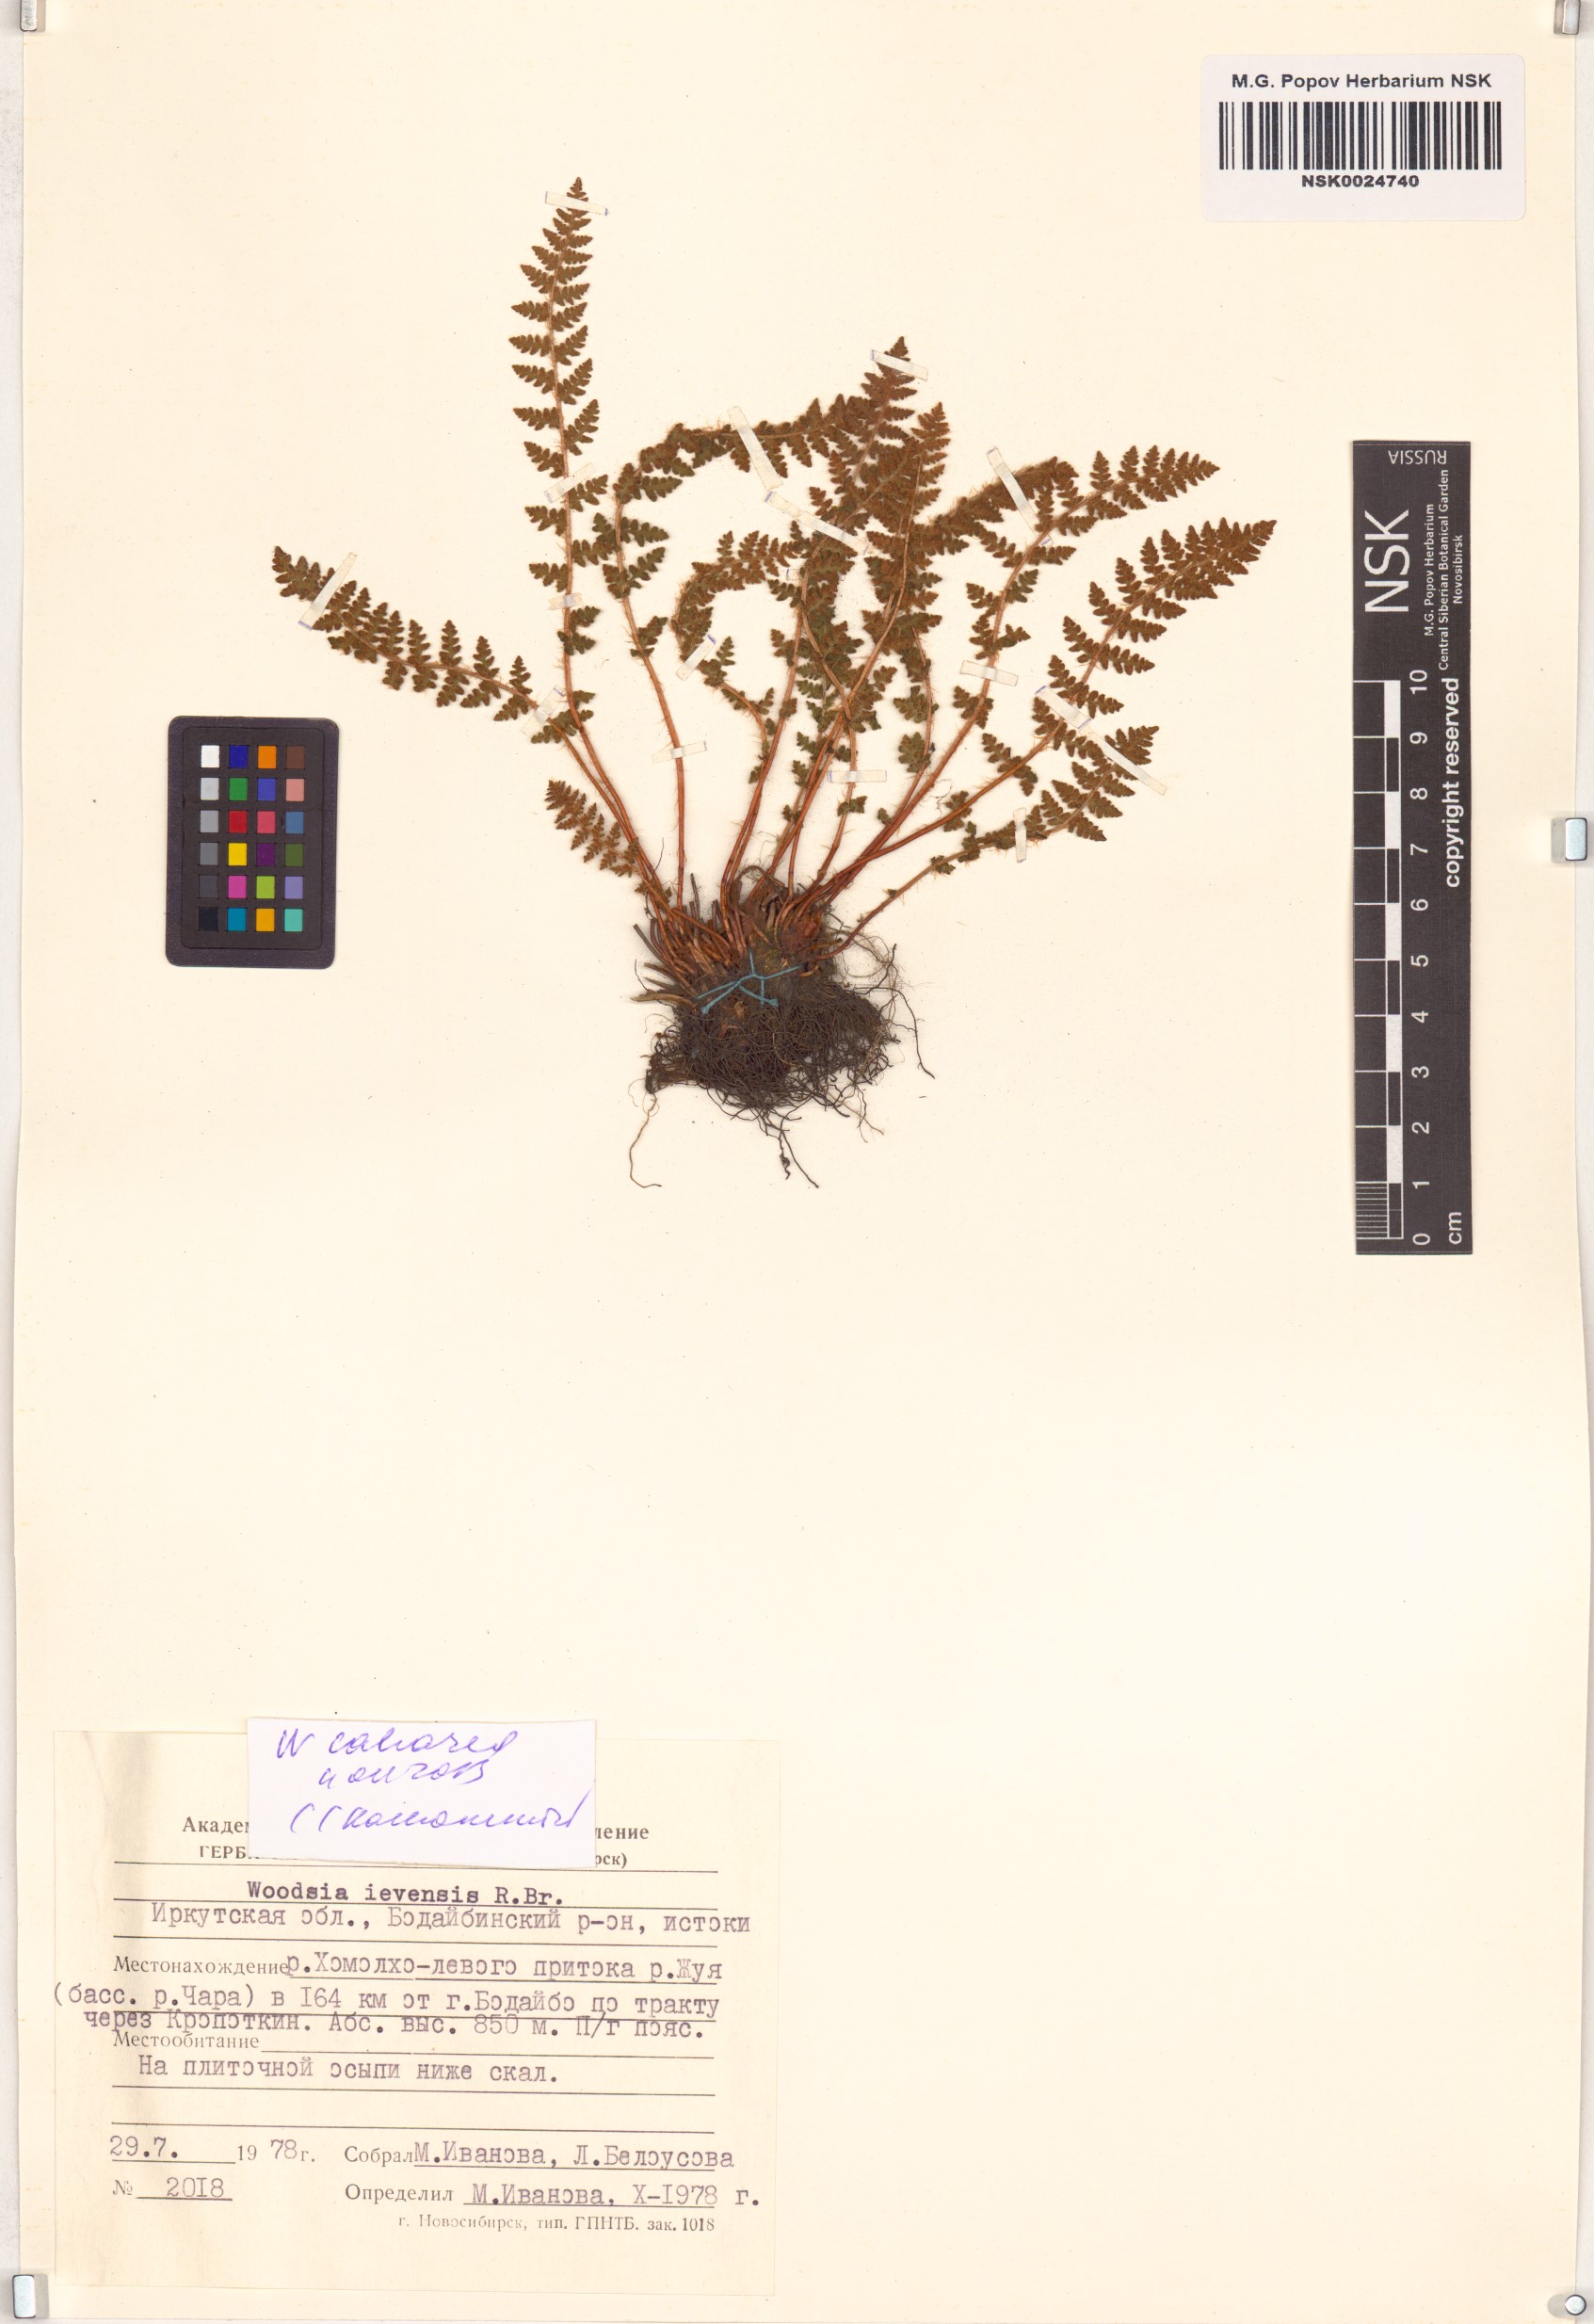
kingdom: Plantae
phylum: Tracheophyta
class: Polypodiopsida
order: Polypodiales
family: Woodsiaceae
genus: Woodsia
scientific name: Woodsia calcarea
